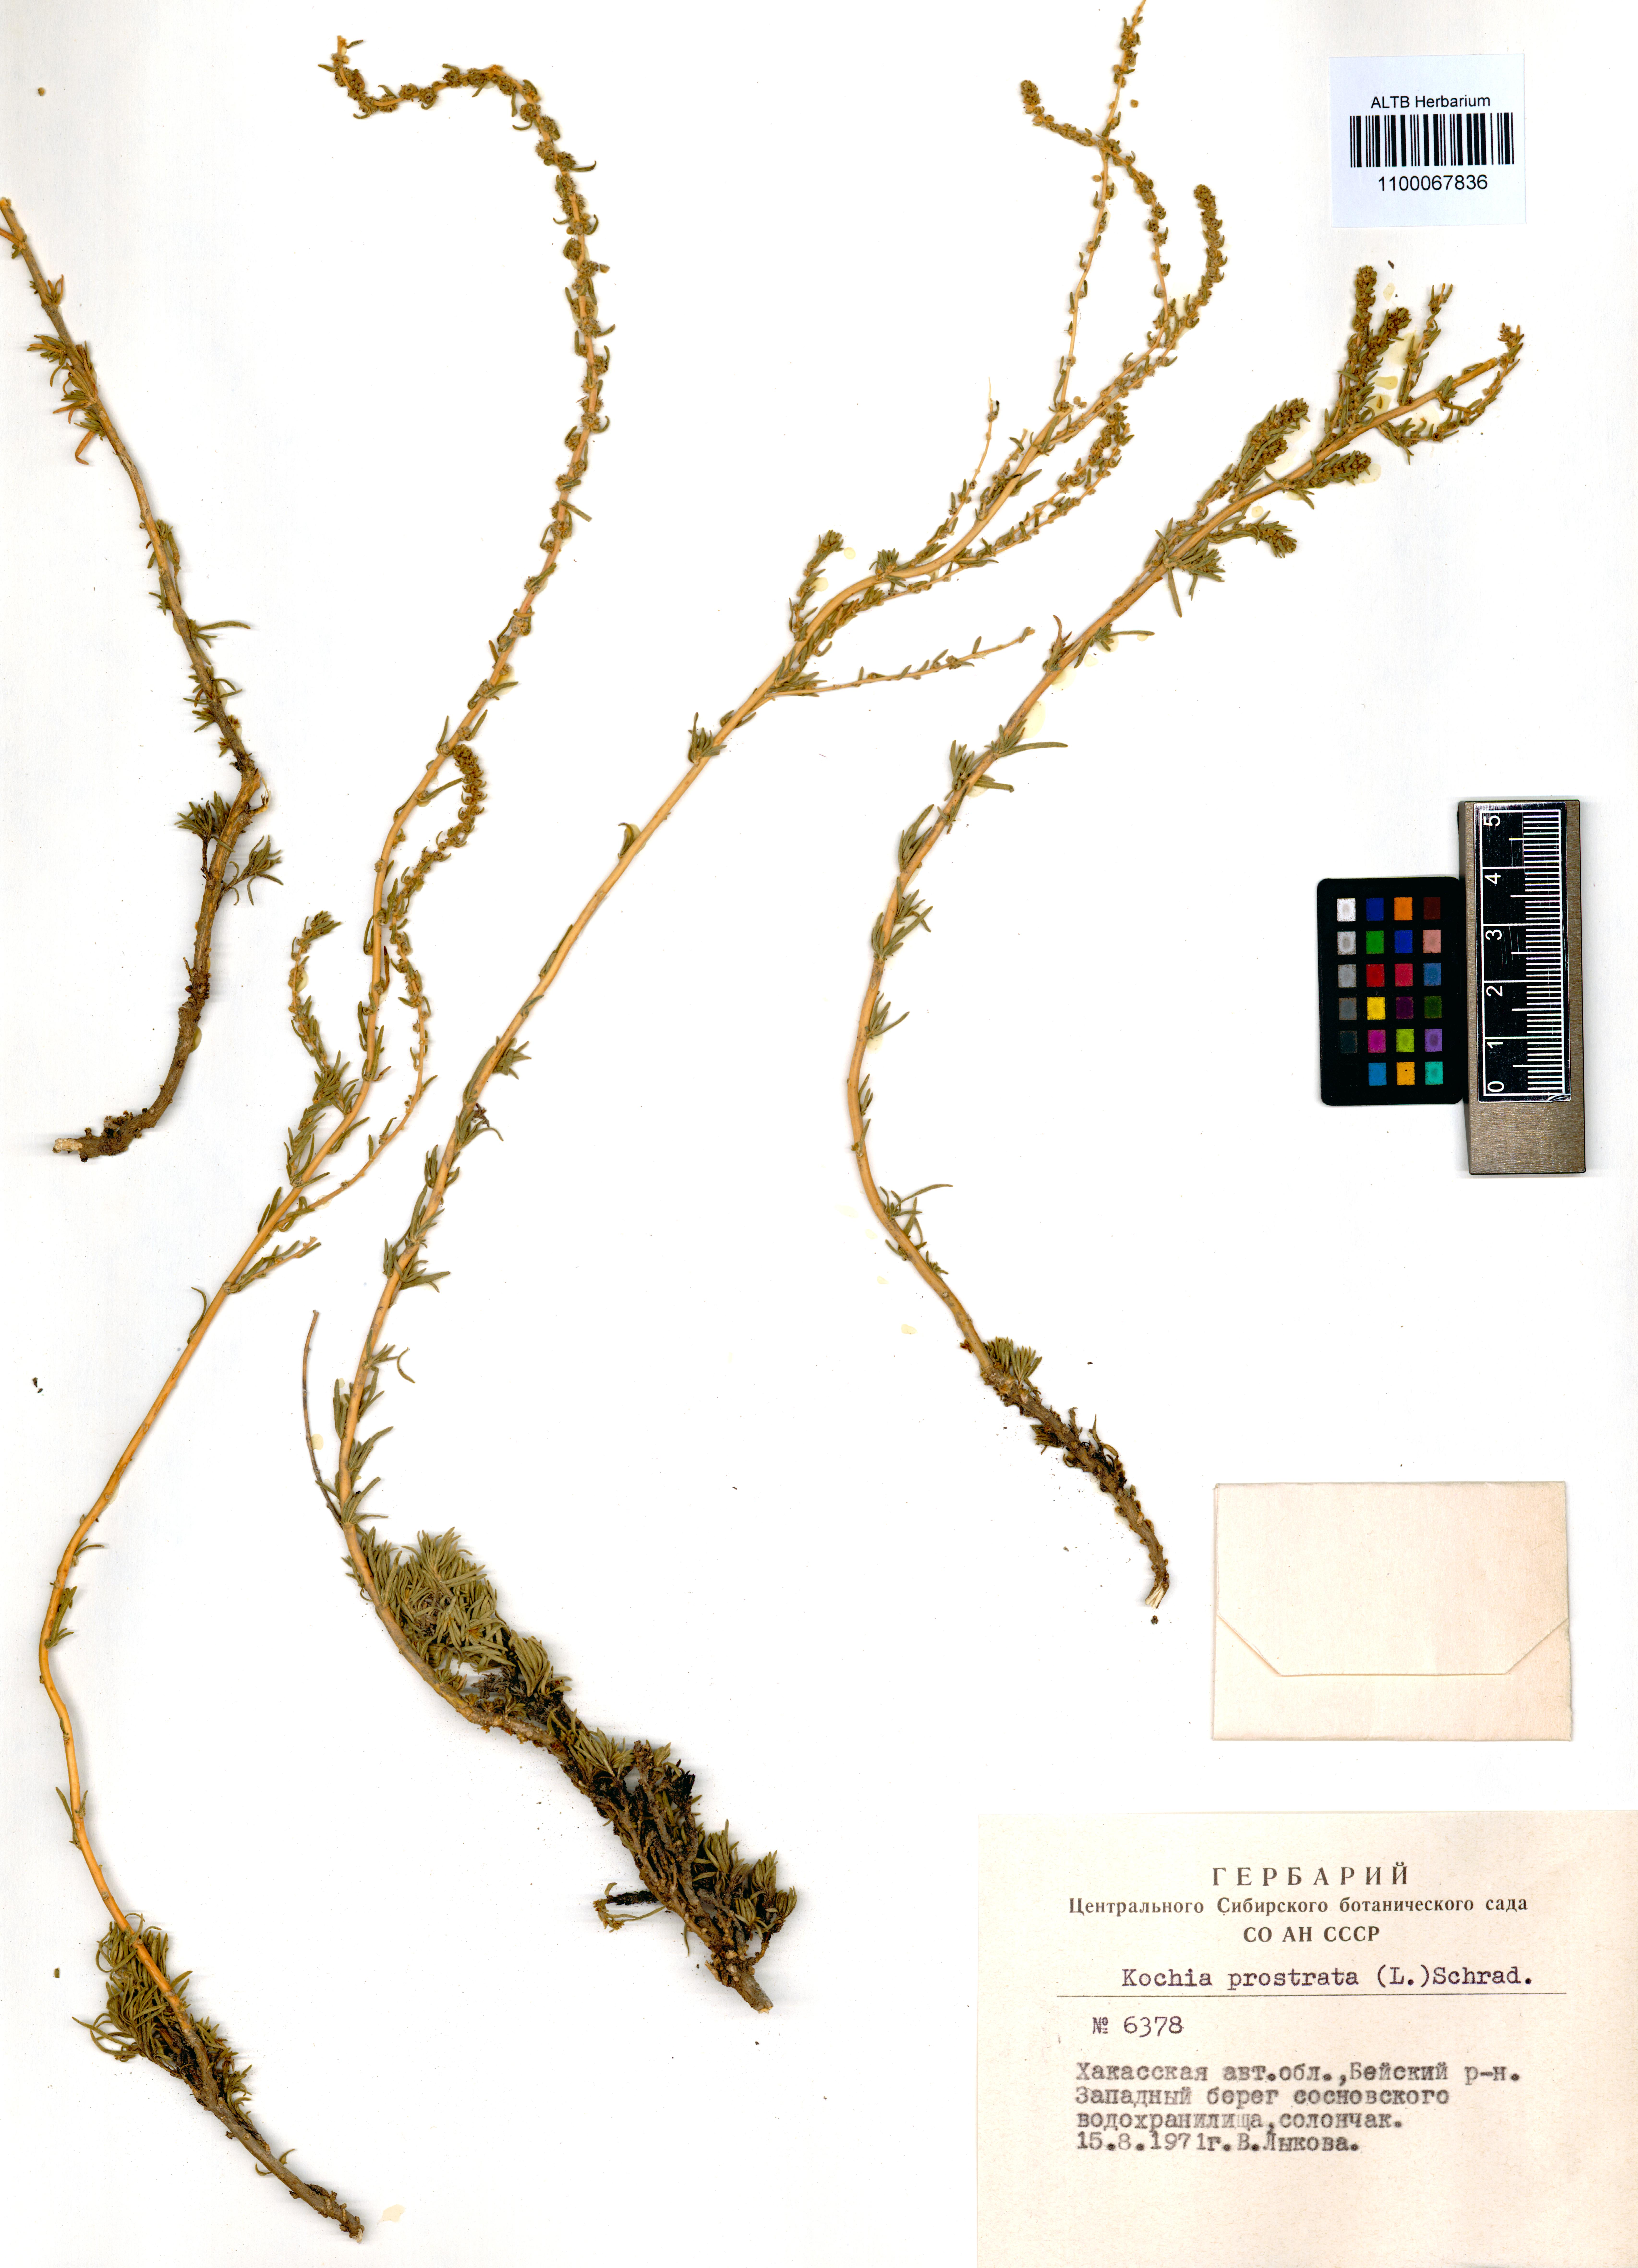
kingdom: Plantae
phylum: Tracheophyta
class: Magnoliopsida
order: Caryophyllales
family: Amaranthaceae
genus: Bassia
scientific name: Bassia prostrata
